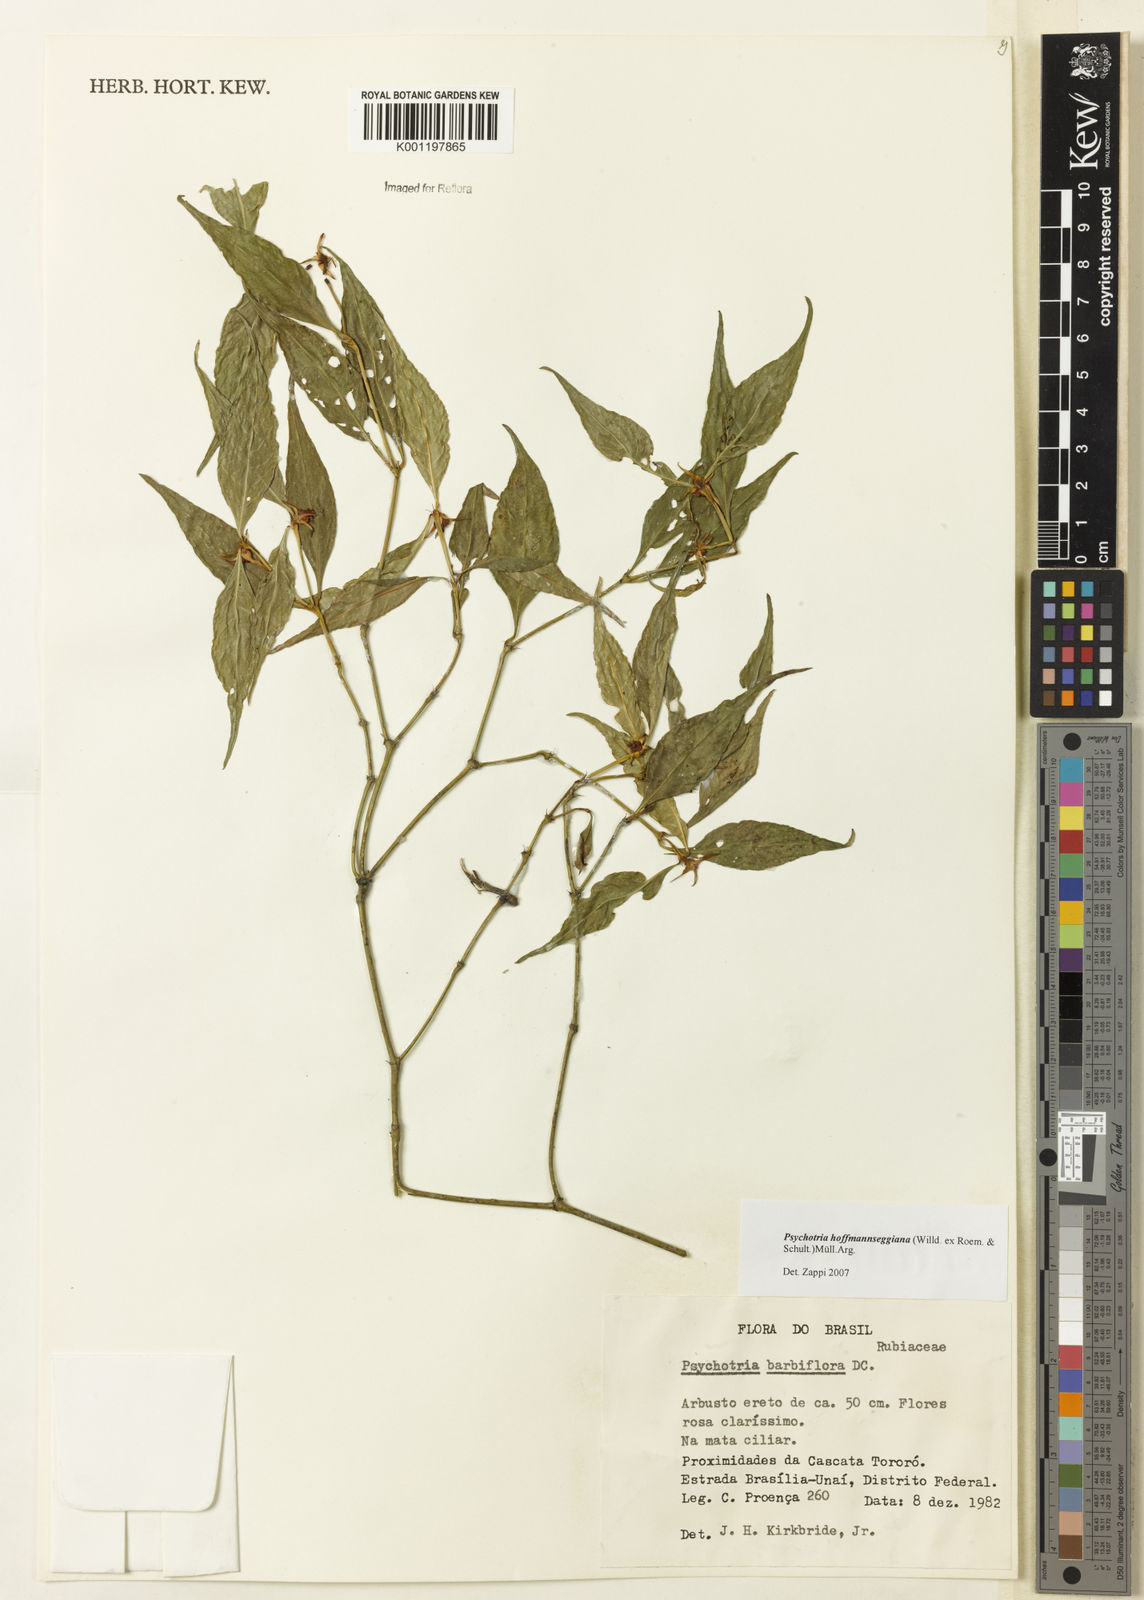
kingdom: Plantae
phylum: Tracheophyta
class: Magnoliopsida
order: Gentianales
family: Rubiaceae
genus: Psychotria
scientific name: Psychotria
